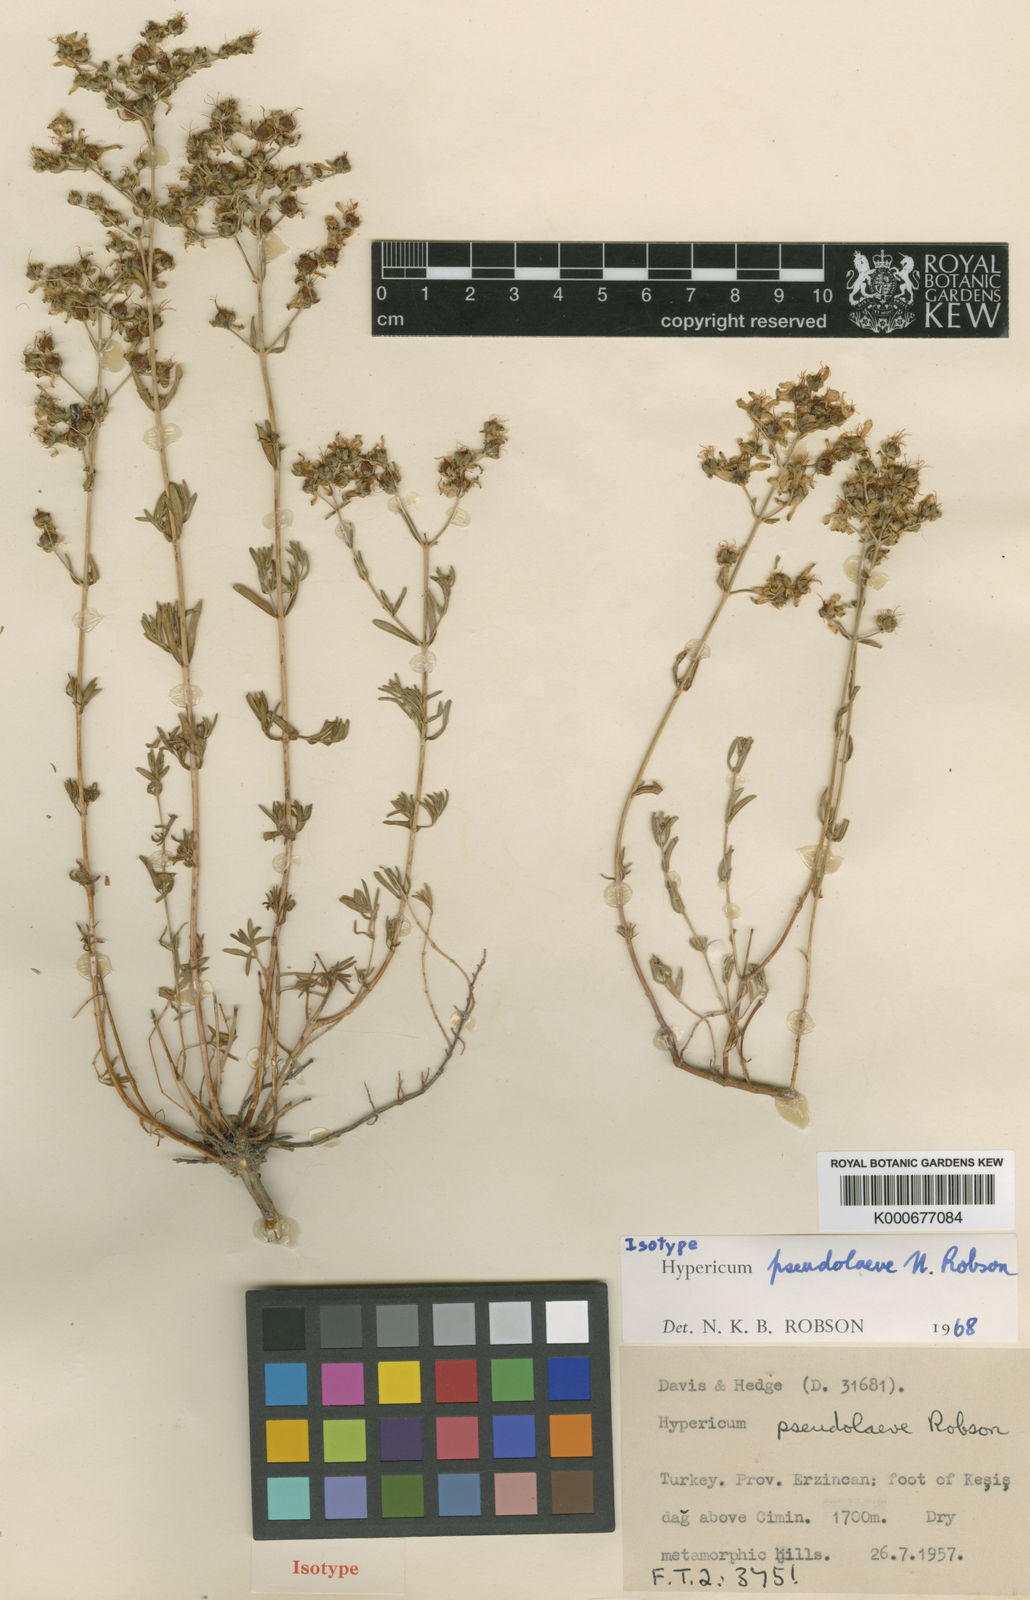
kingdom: Plantae
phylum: Tracheophyta
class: Magnoliopsida
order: Malpighiales
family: Hypericaceae
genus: Hypericum
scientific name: Hypericum pseudolaeve
